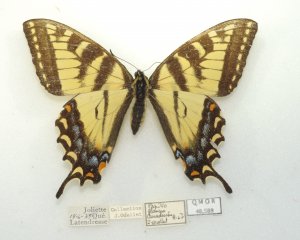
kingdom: Animalia
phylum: Arthropoda
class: Insecta
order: Lepidoptera
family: Papilionidae
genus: Pterourus
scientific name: Pterourus canadensis
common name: Canadian Tiger Swallowtail
